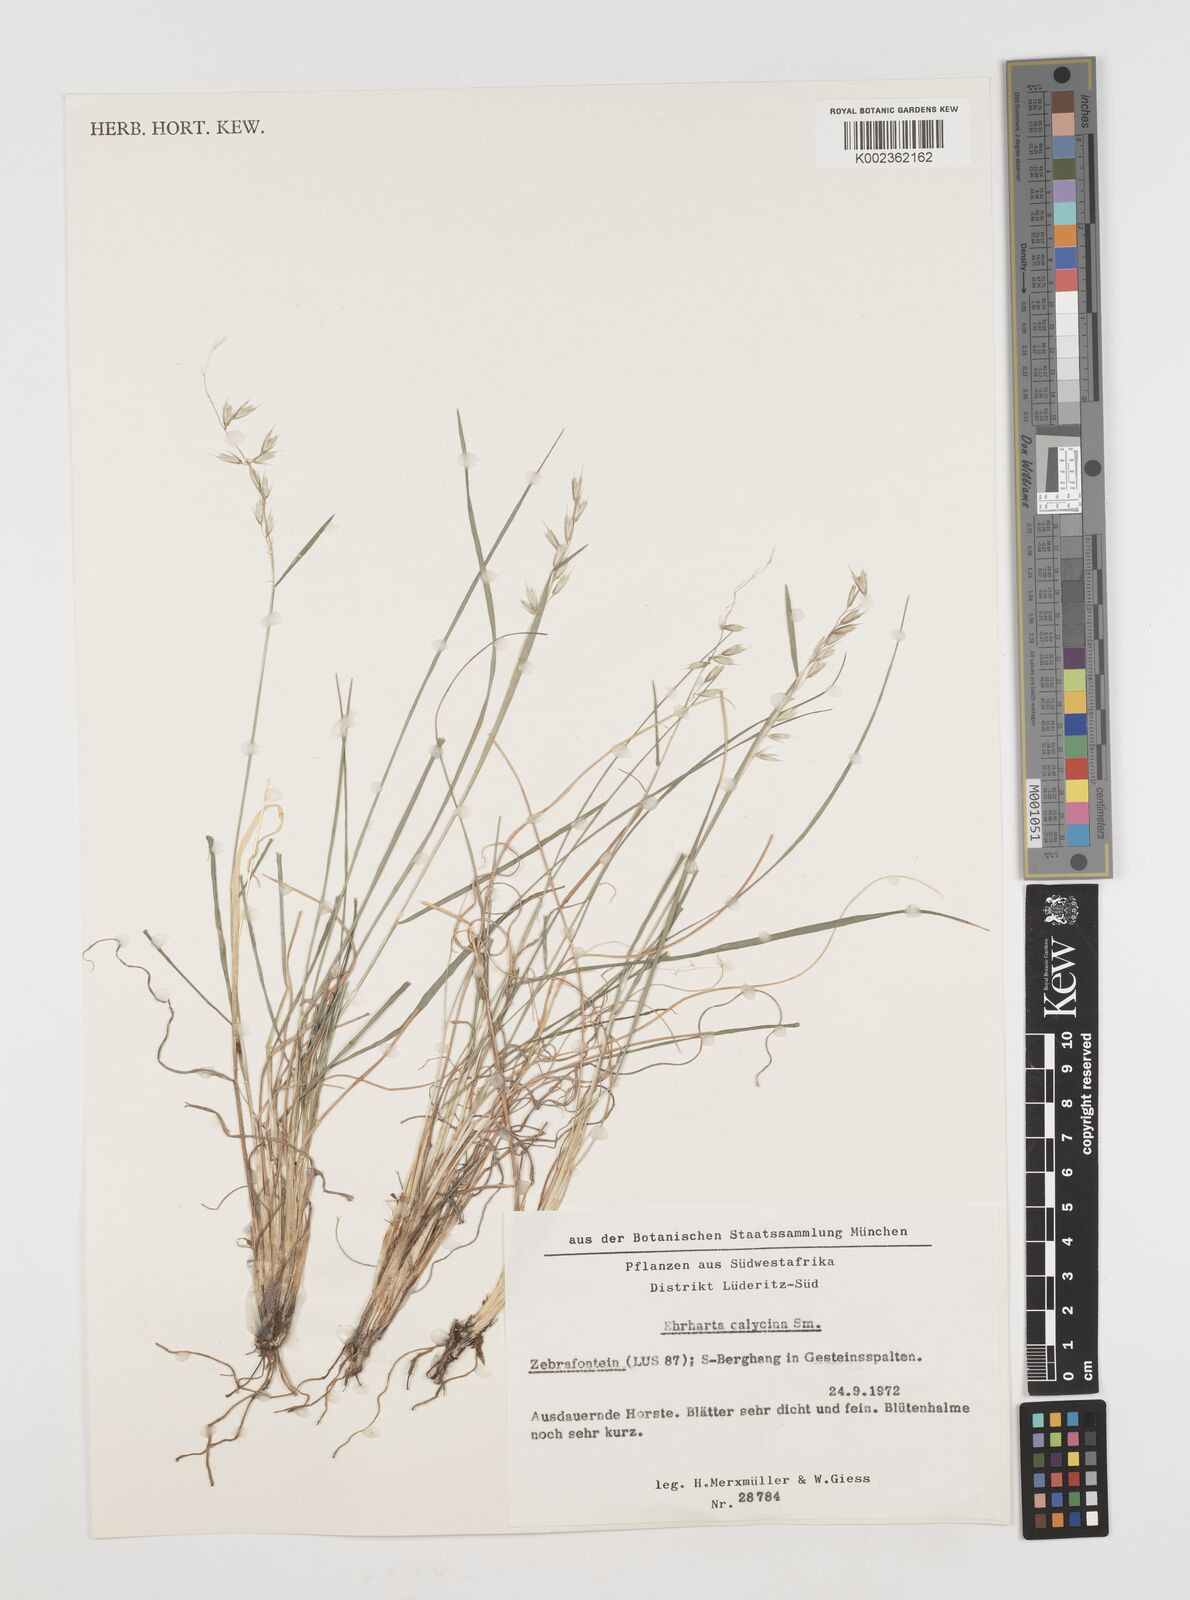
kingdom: Plantae
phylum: Tracheophyta
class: Liliopsida
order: Poales
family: Poaceae
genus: Ehrharta
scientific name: Ehrharta
